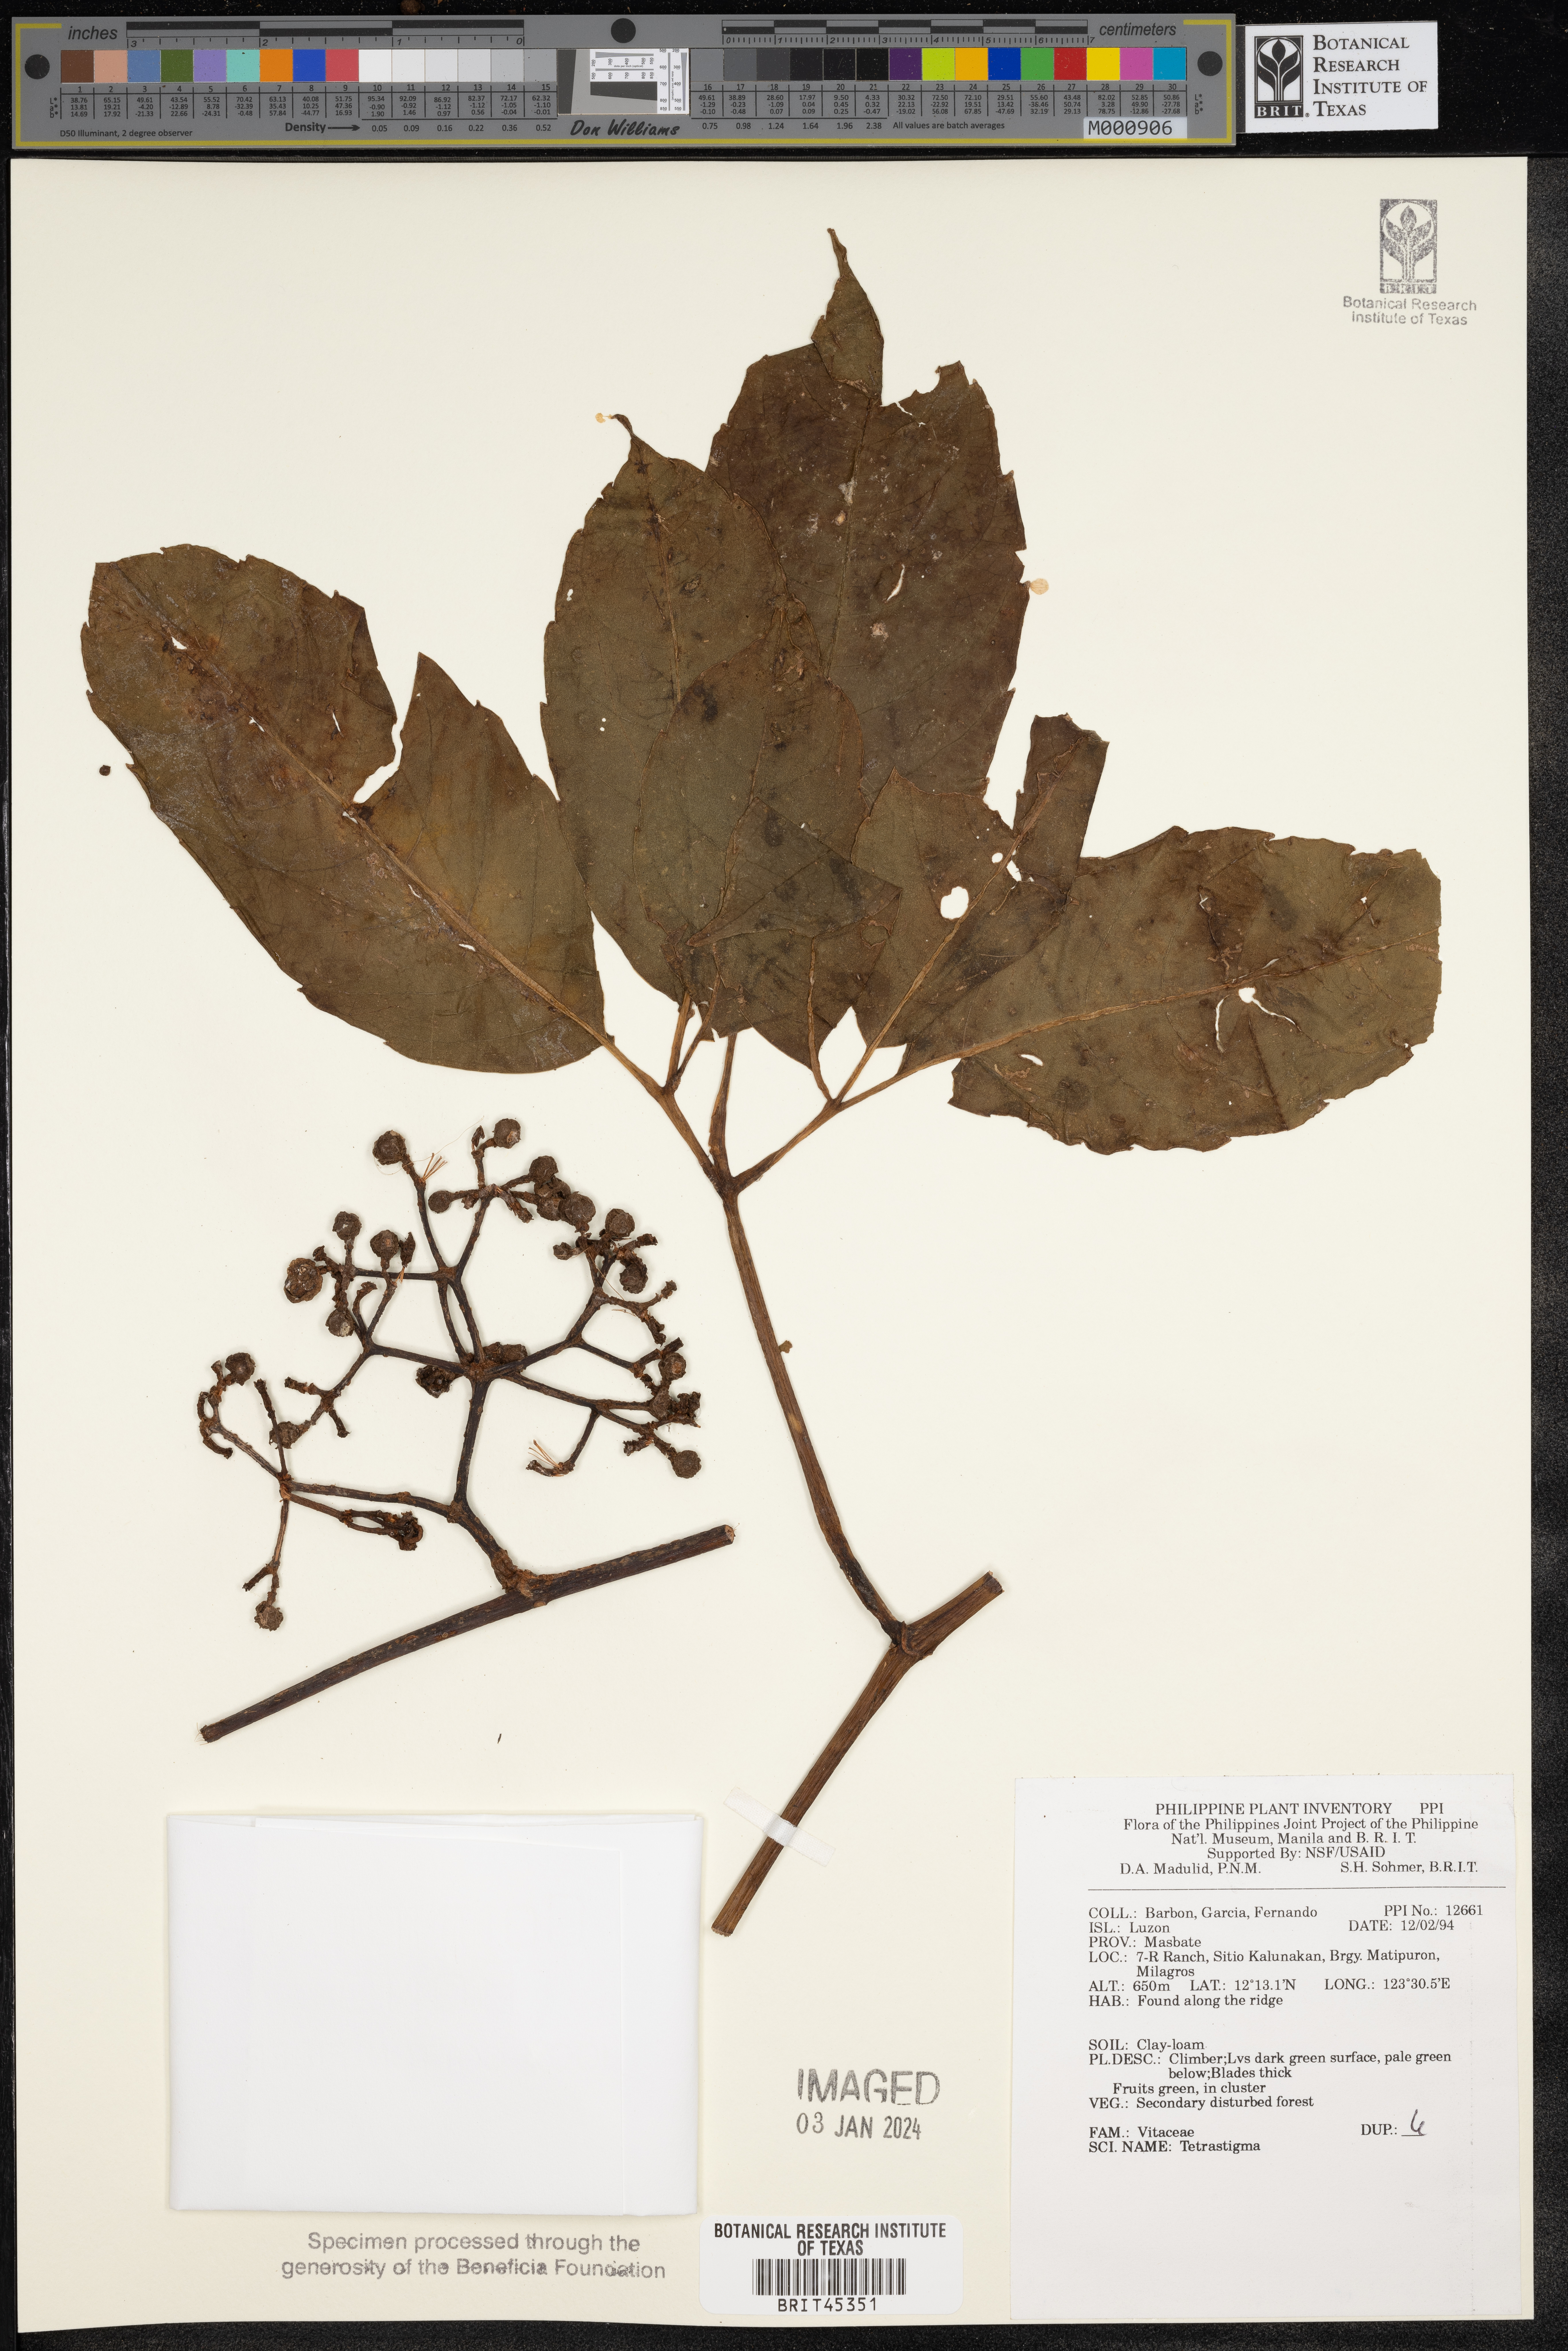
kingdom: Plantae
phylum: Tracheophyta
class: Magnoliopsida
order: Vitales
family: Vitaceae
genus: Tetrastigma
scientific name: Tetrastigma
